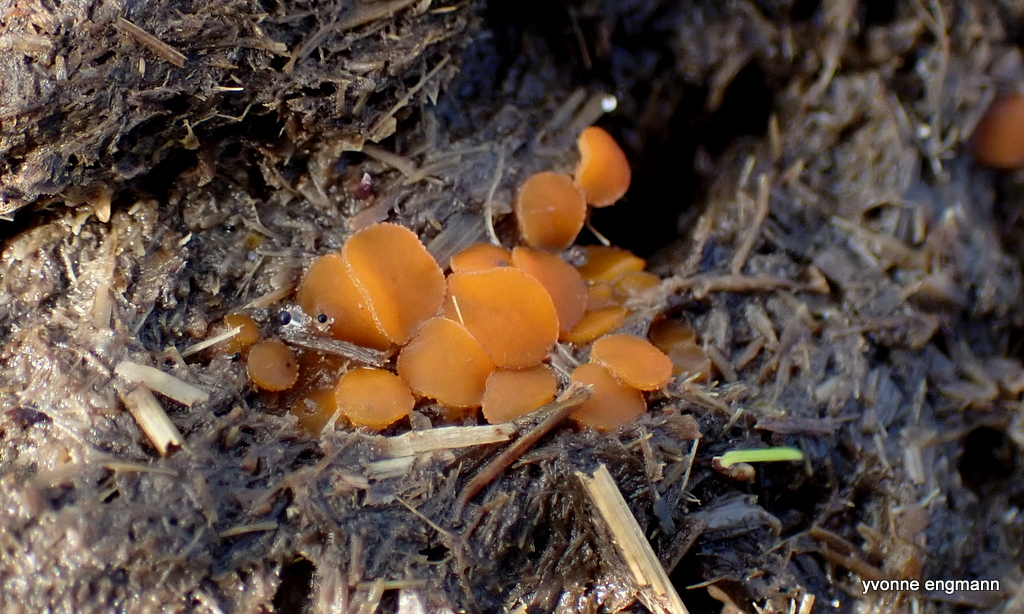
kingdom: Fungi
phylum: Ascomycota
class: Pezizomycetes
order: Pezizales
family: Pyronemataceae
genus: Cheilymenia
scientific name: Cheilymenia granulata
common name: møgbæger
